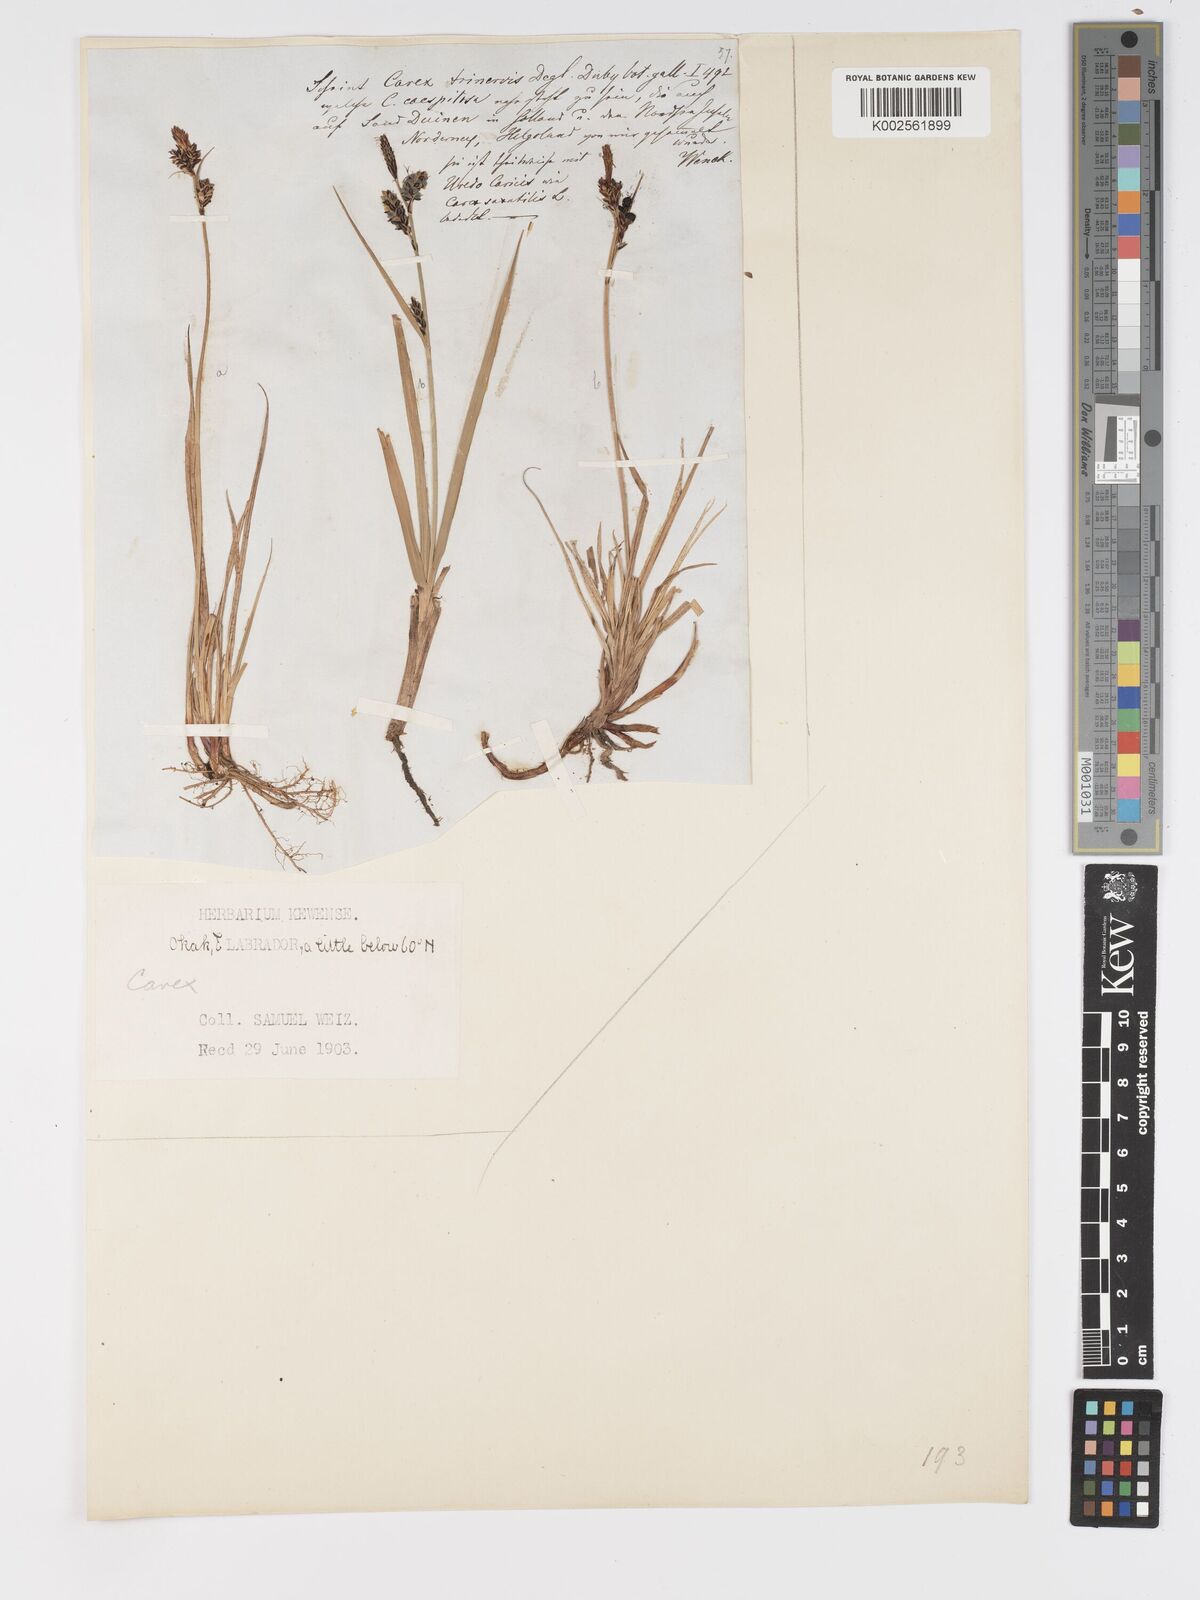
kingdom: Plantae
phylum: Tracheophyta
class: Liliopsida
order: Poales
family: Cyperaceae
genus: Carex
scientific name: Carex bigelowii
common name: Stiff sedge
